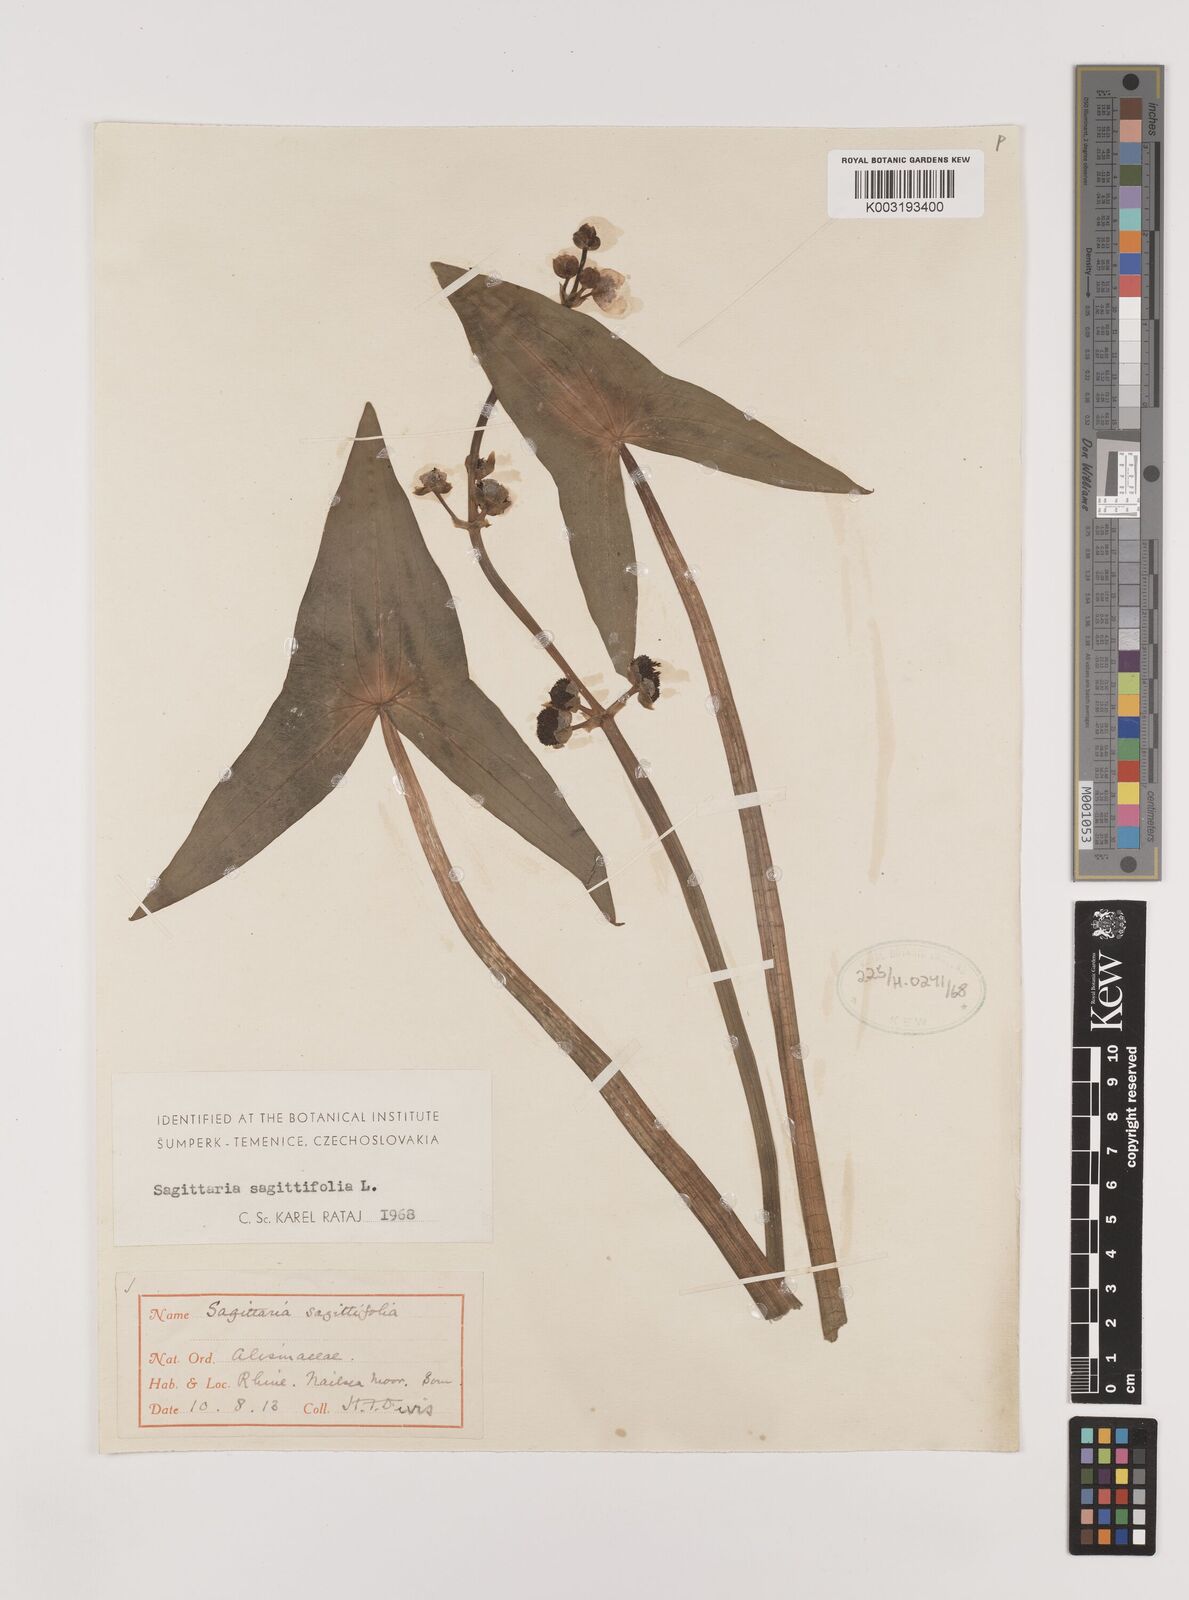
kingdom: Plantae
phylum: Tracheophyta
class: Liliopsida
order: Alismatales
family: Alismataceae
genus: Sagittaria
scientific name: Sagittaria sagittifolia
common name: Arrowhead
